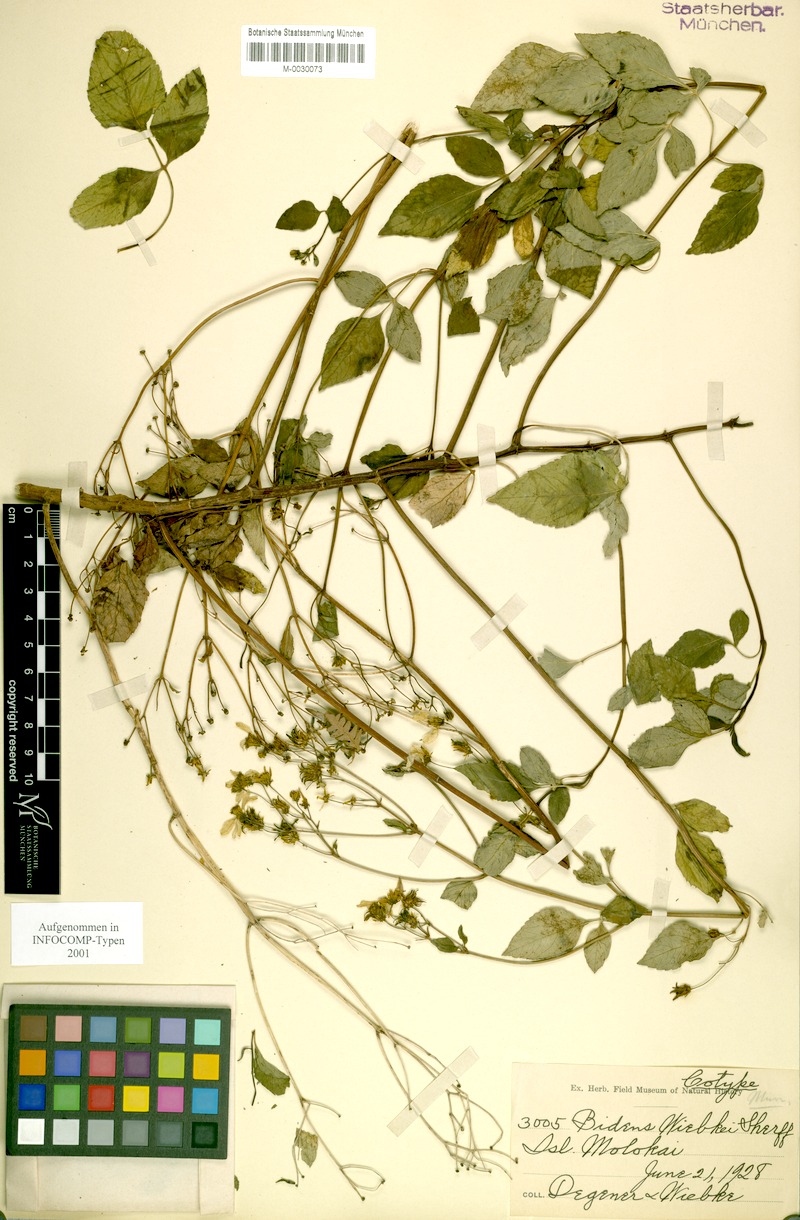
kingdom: Plantae
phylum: Tracheophyta
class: Magnoliopsida
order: Asterales
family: Asteraceae
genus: Bidens
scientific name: Bidens wiebkei
